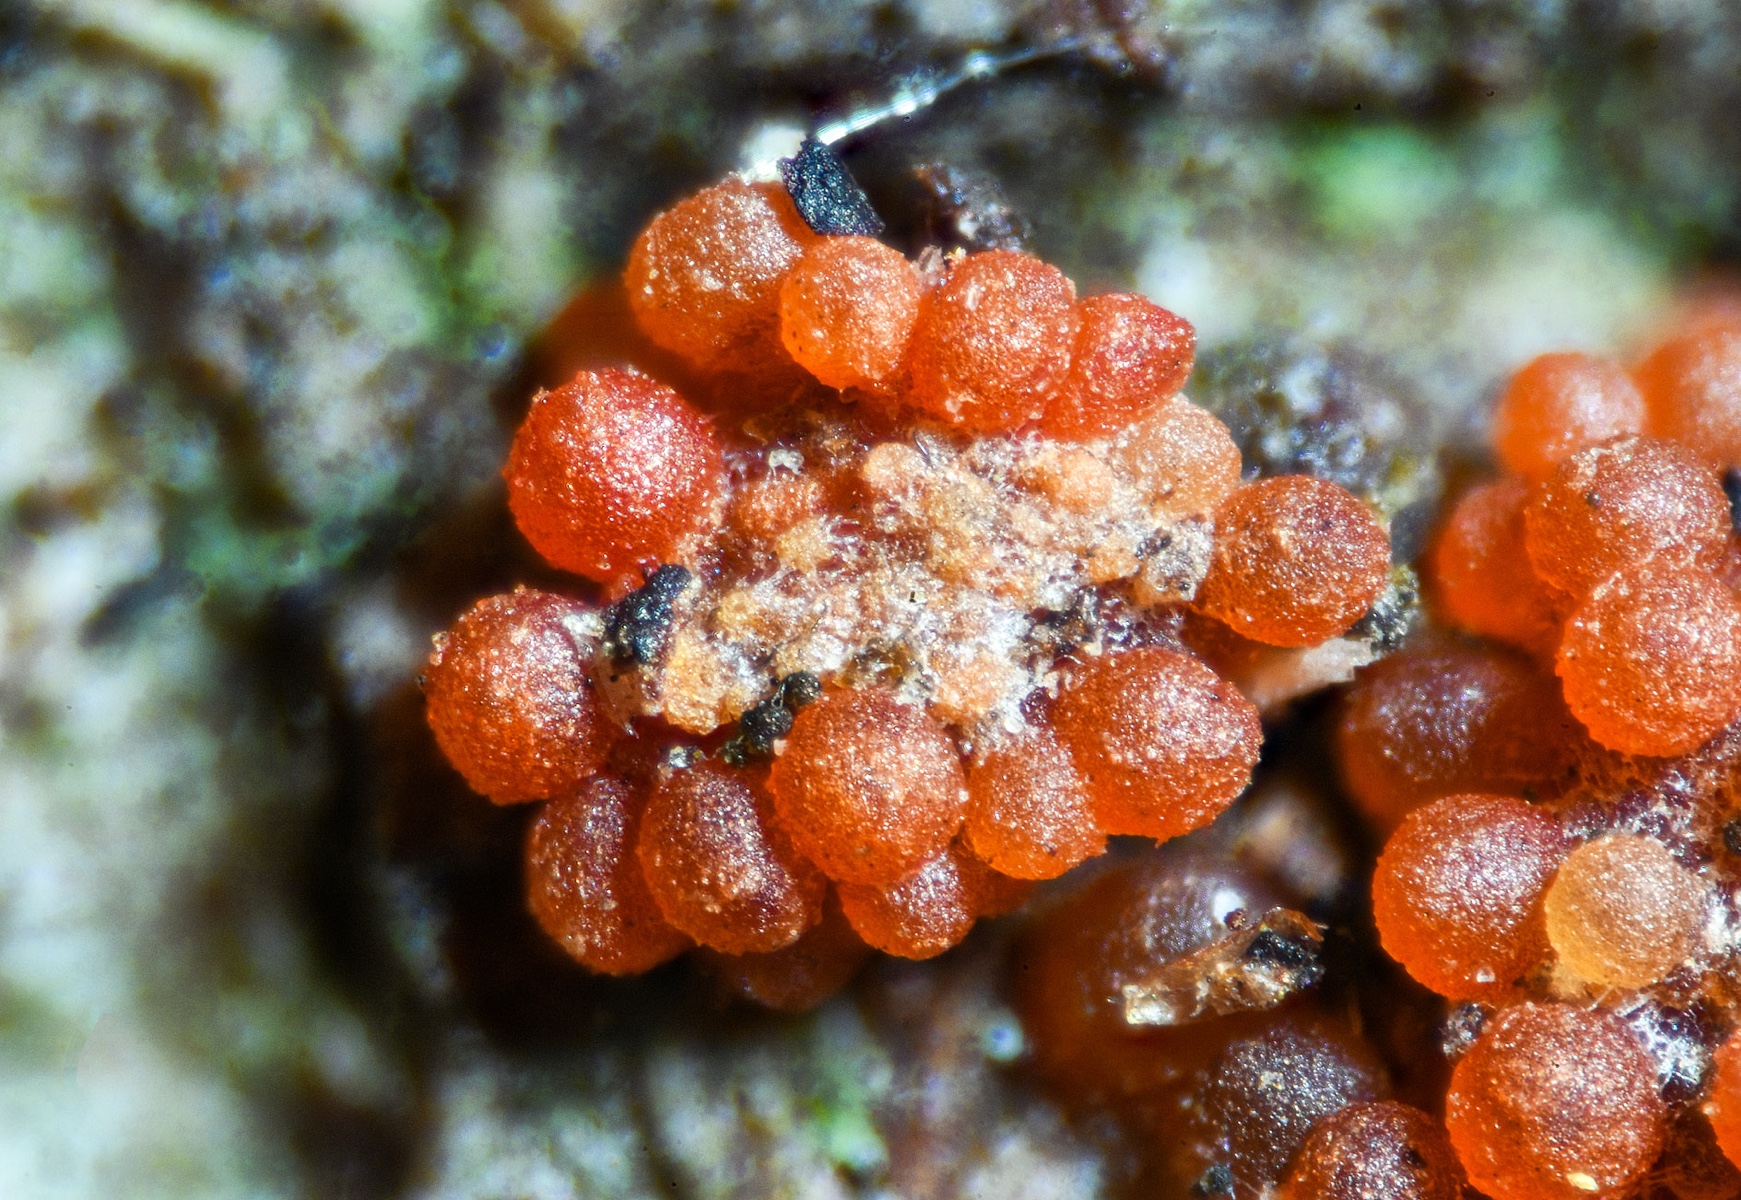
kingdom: Fungi
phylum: Ascomycota
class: Sordariomycetes
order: Hypocreales
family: Nectriaceae
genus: Neonectria
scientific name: Neonectria punicea
